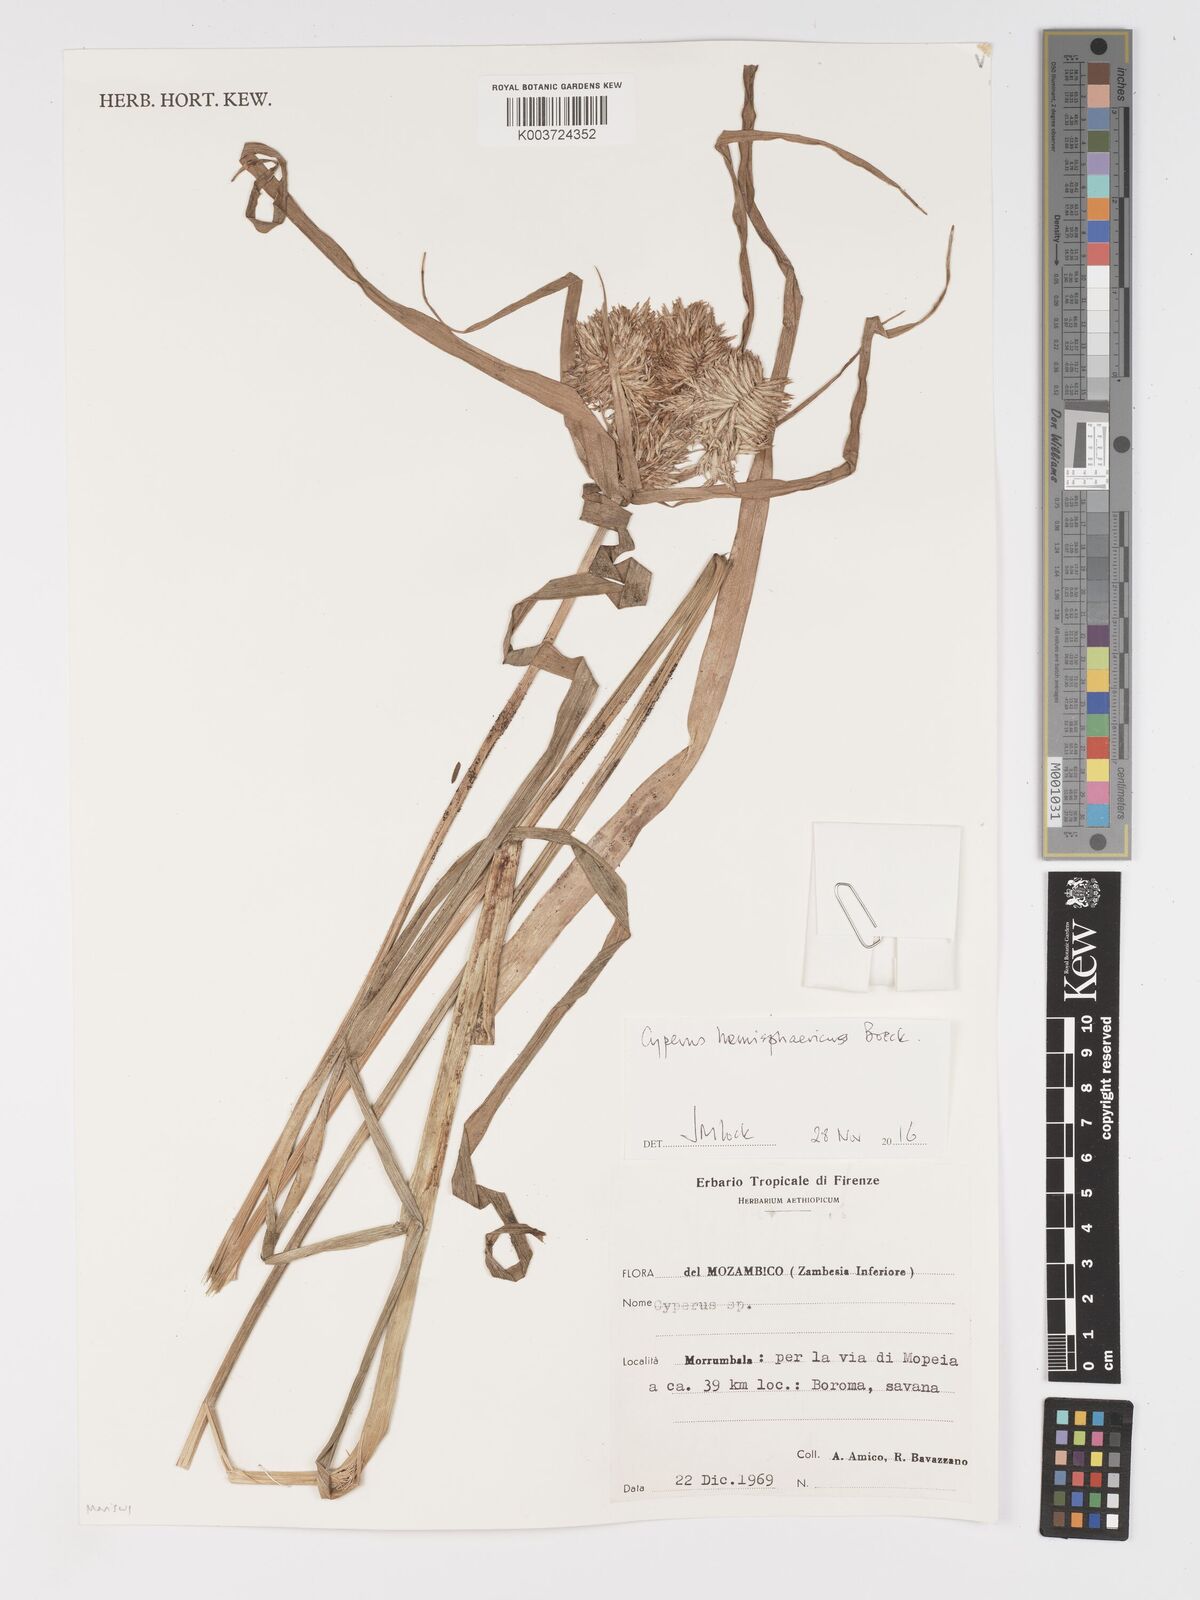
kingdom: Plantae
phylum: Tracheophyta
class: Liliopsida
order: Poales
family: Cyperaceae
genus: Cyperus
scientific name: Cyperus hemisphaericus
